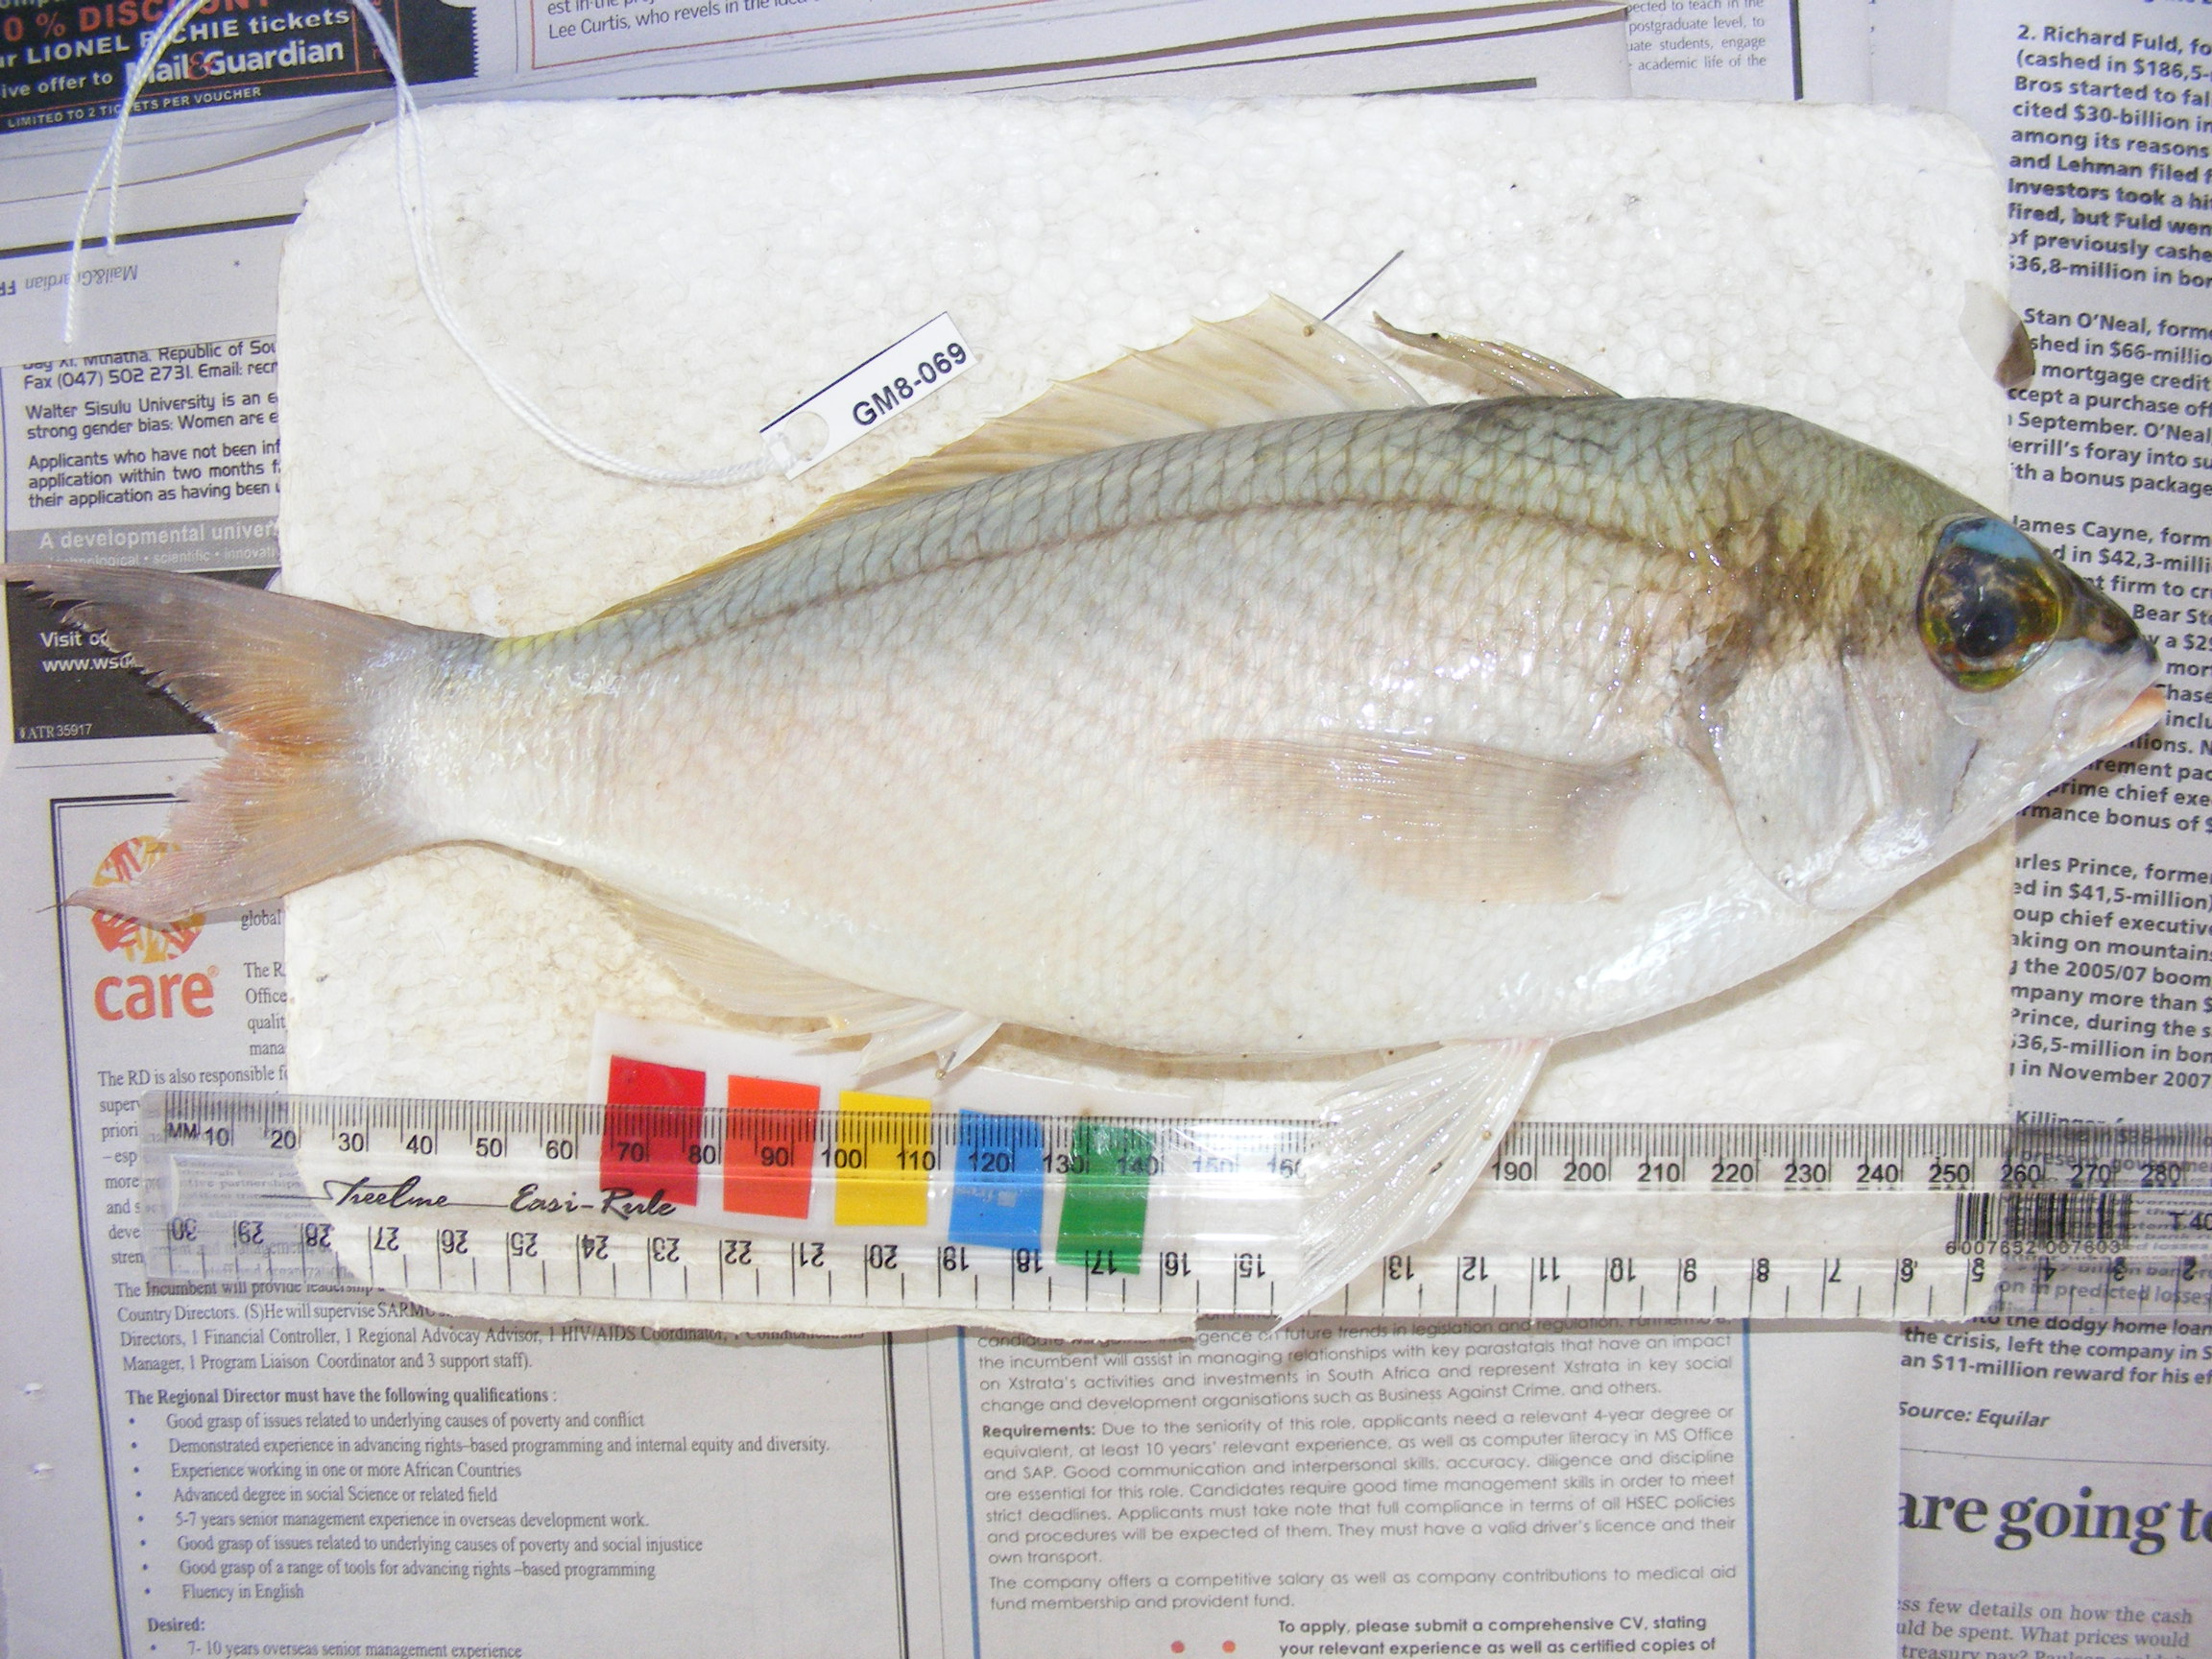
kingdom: Animalia
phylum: Chordata
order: Perciformes
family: Nemipteridae
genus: Scolopsis
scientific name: Scolopsis
